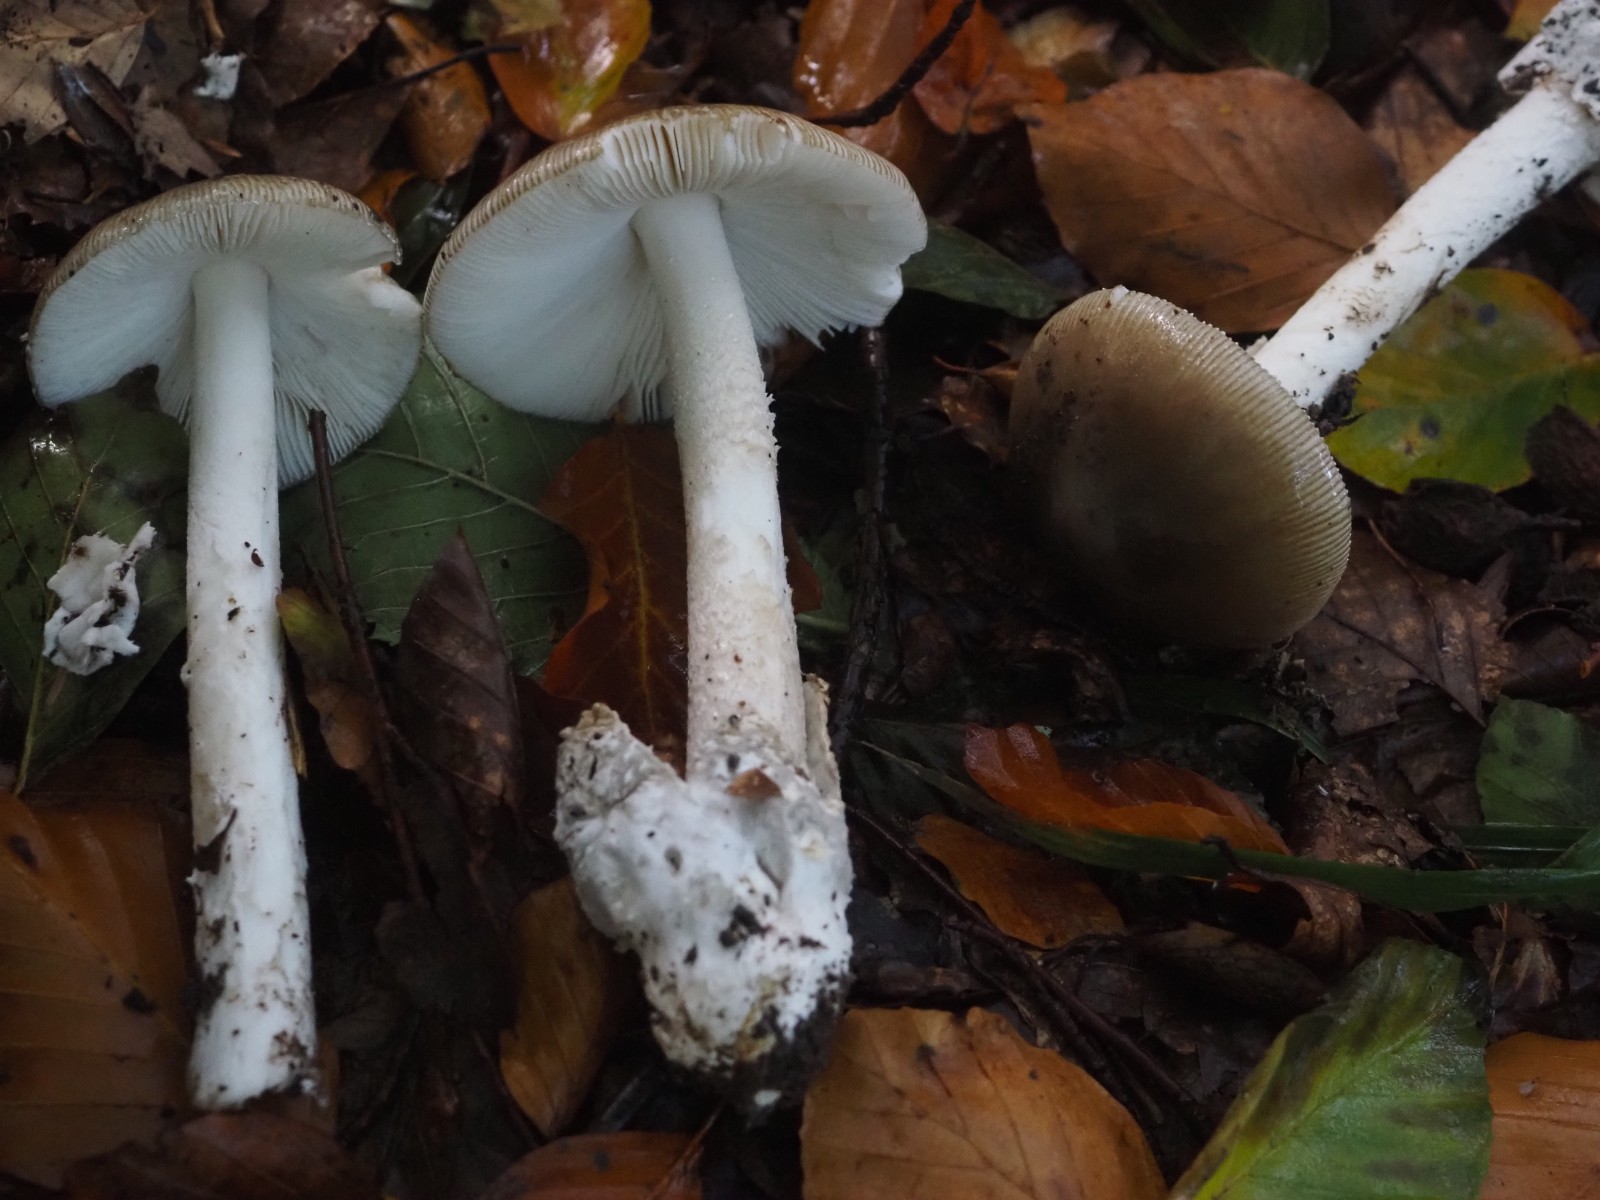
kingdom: Fungi
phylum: Basidiomycota
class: Agaricomycetes
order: Agaricales
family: Amanitaceae
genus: Amanita
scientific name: Amanita vaginata
